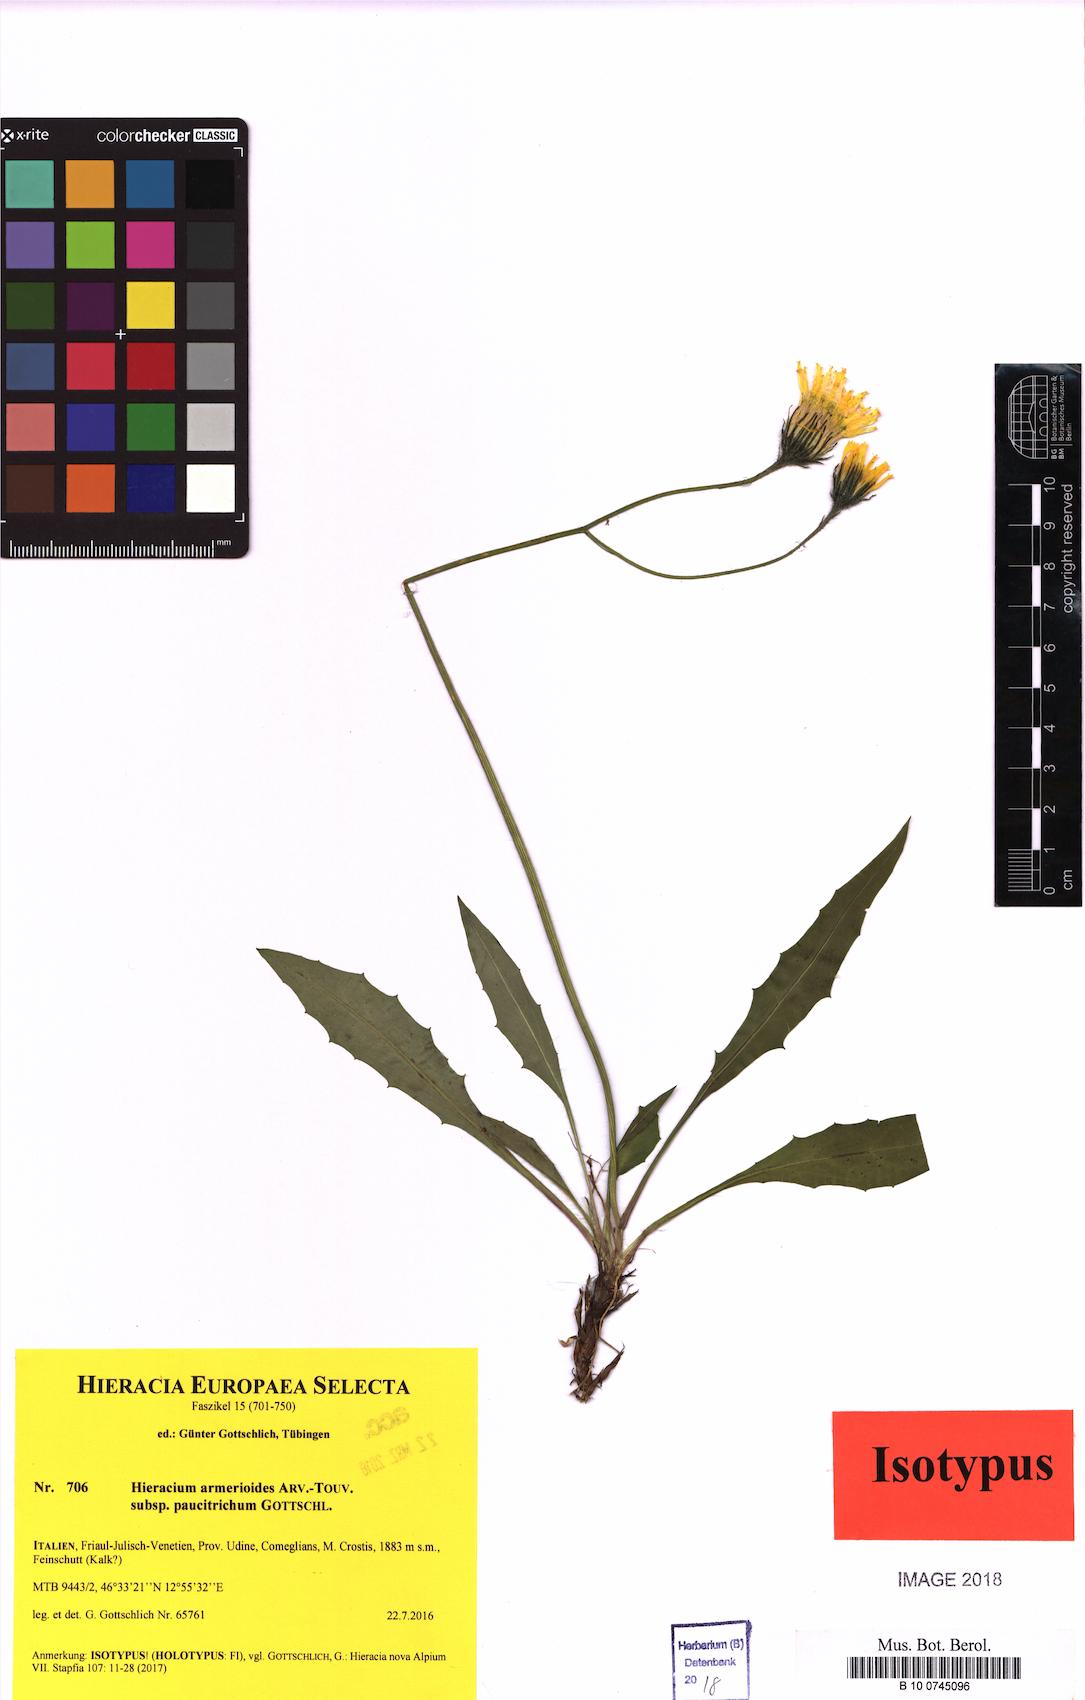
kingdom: Plantae
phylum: Tracheophyta
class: Magnoliopsida
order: Asterales
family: Asteraceae
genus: Hieracium
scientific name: Hieracium armerioides
